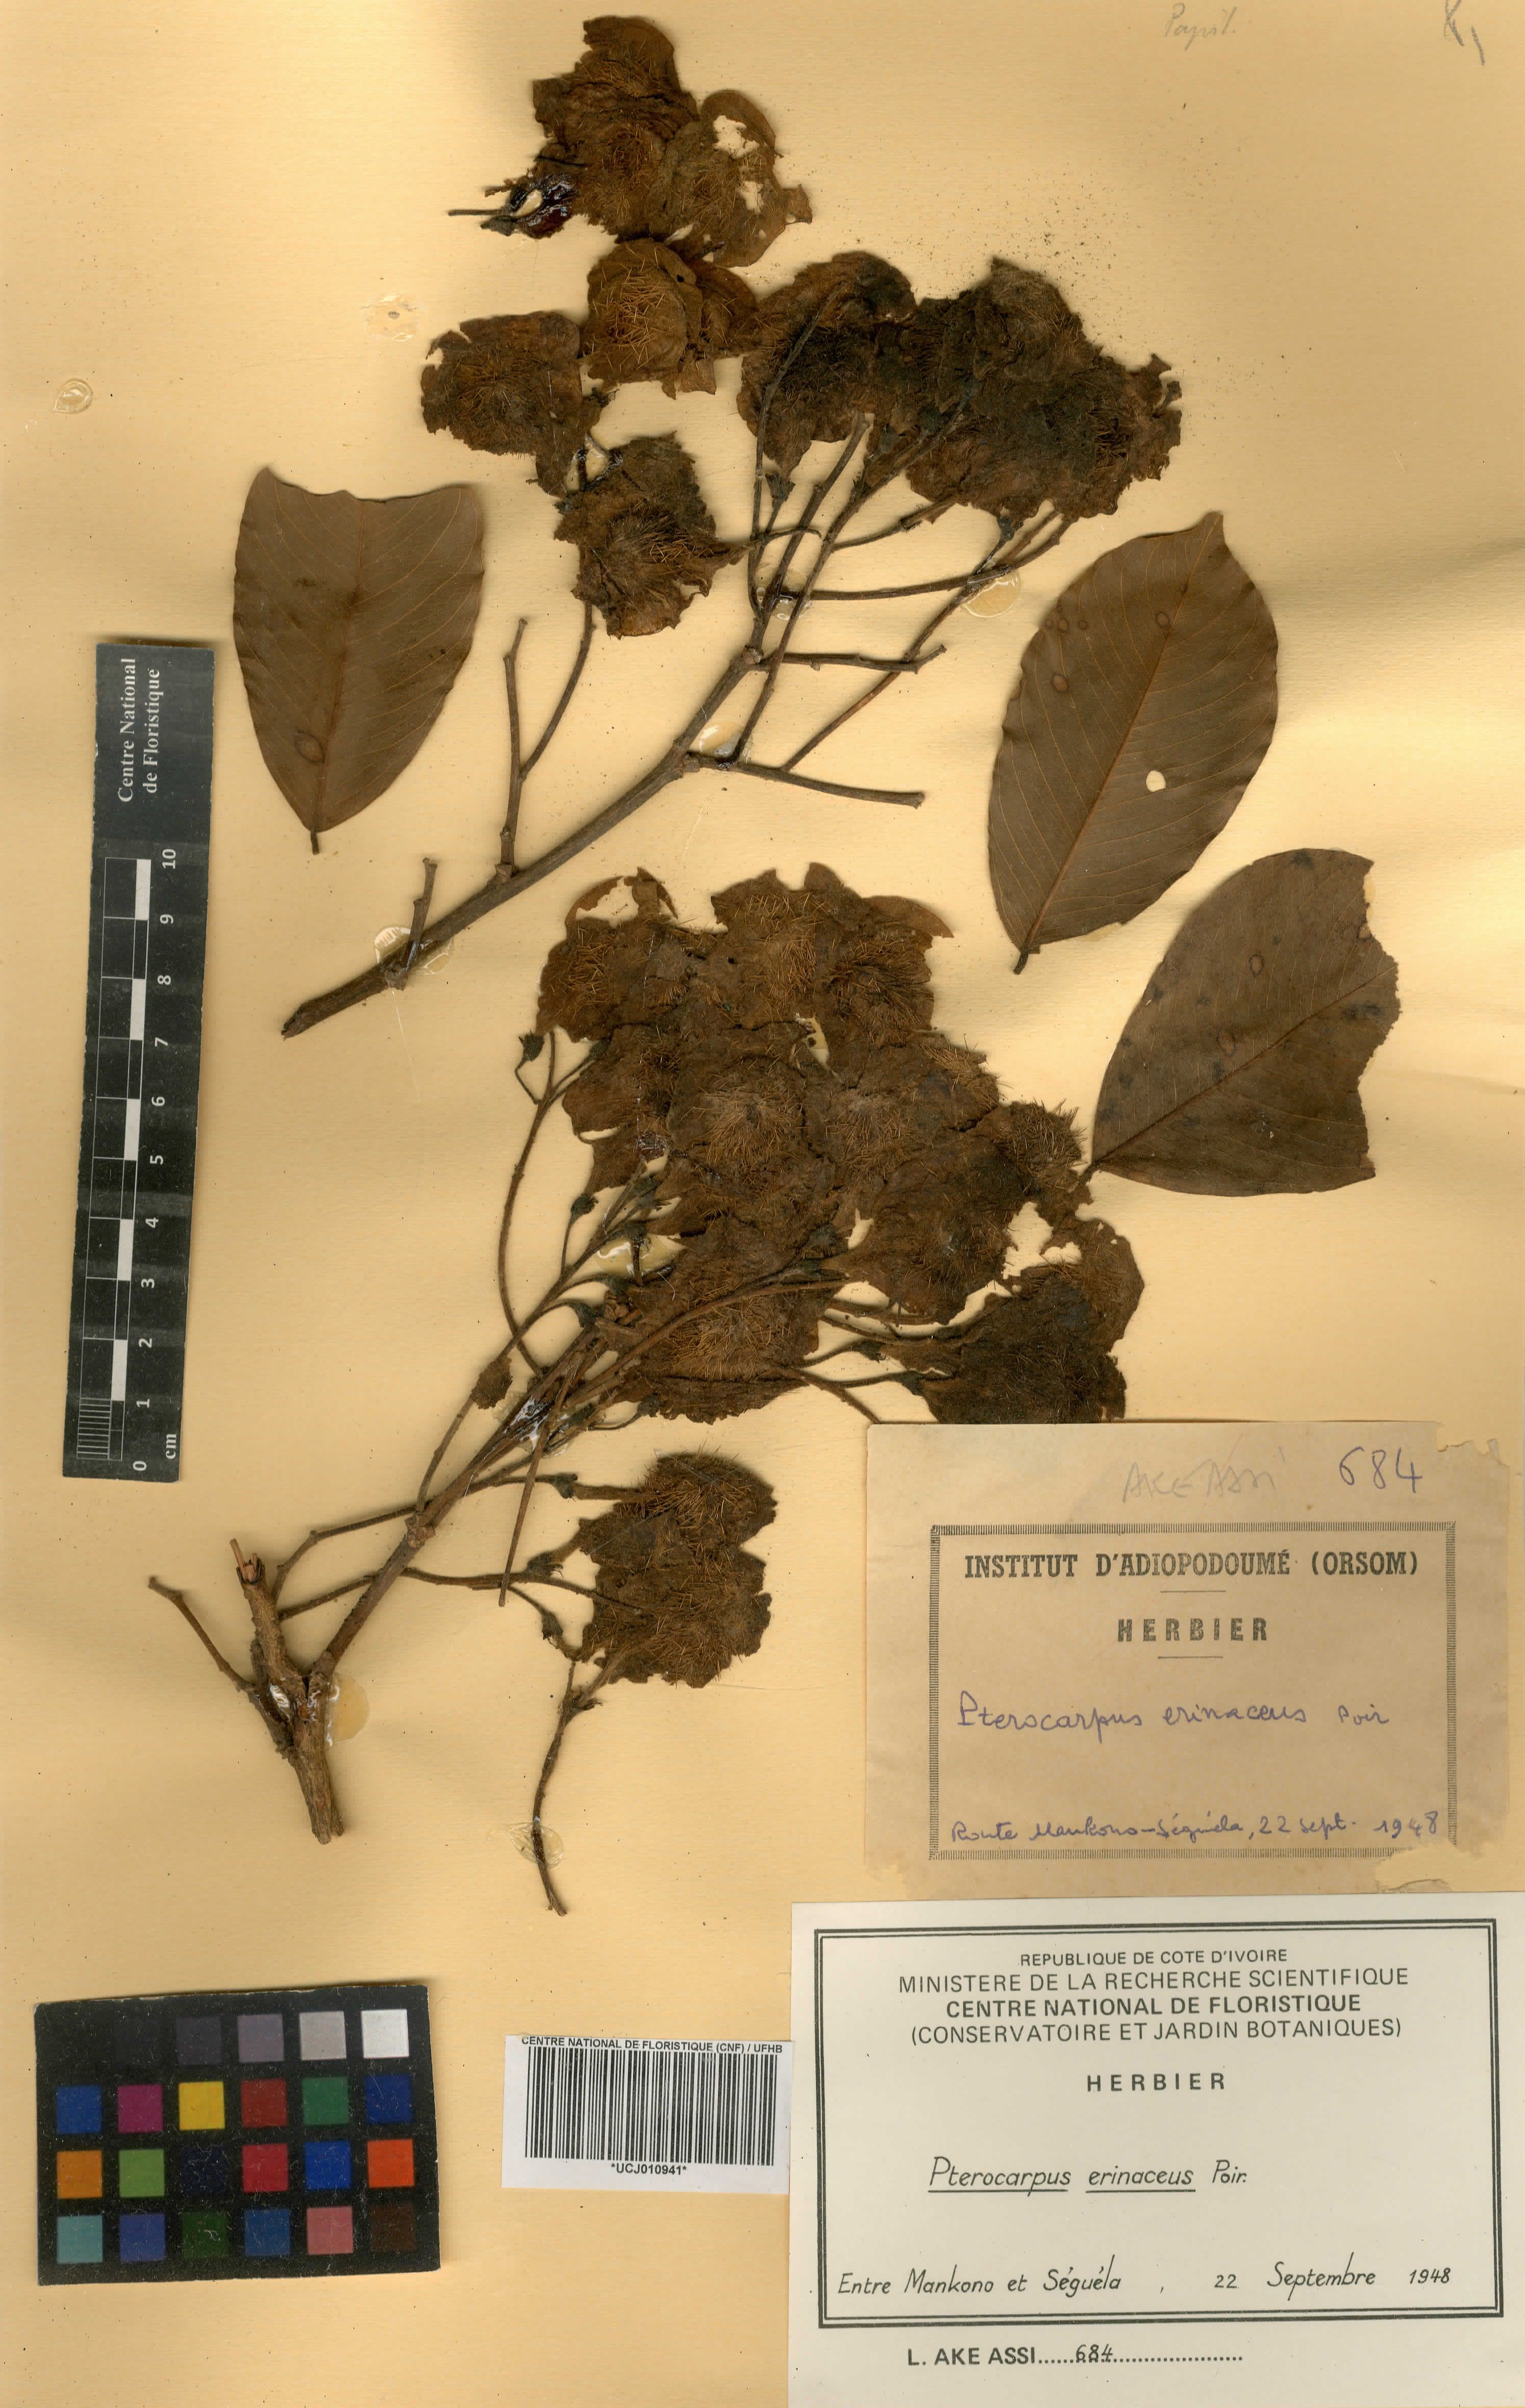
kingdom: Plantae
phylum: Tracheophyta
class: Magnoliopsida
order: Fabales
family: Fabaceae
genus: Pterocarpus
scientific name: Pterocarpus erinaceus
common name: African rosewood
